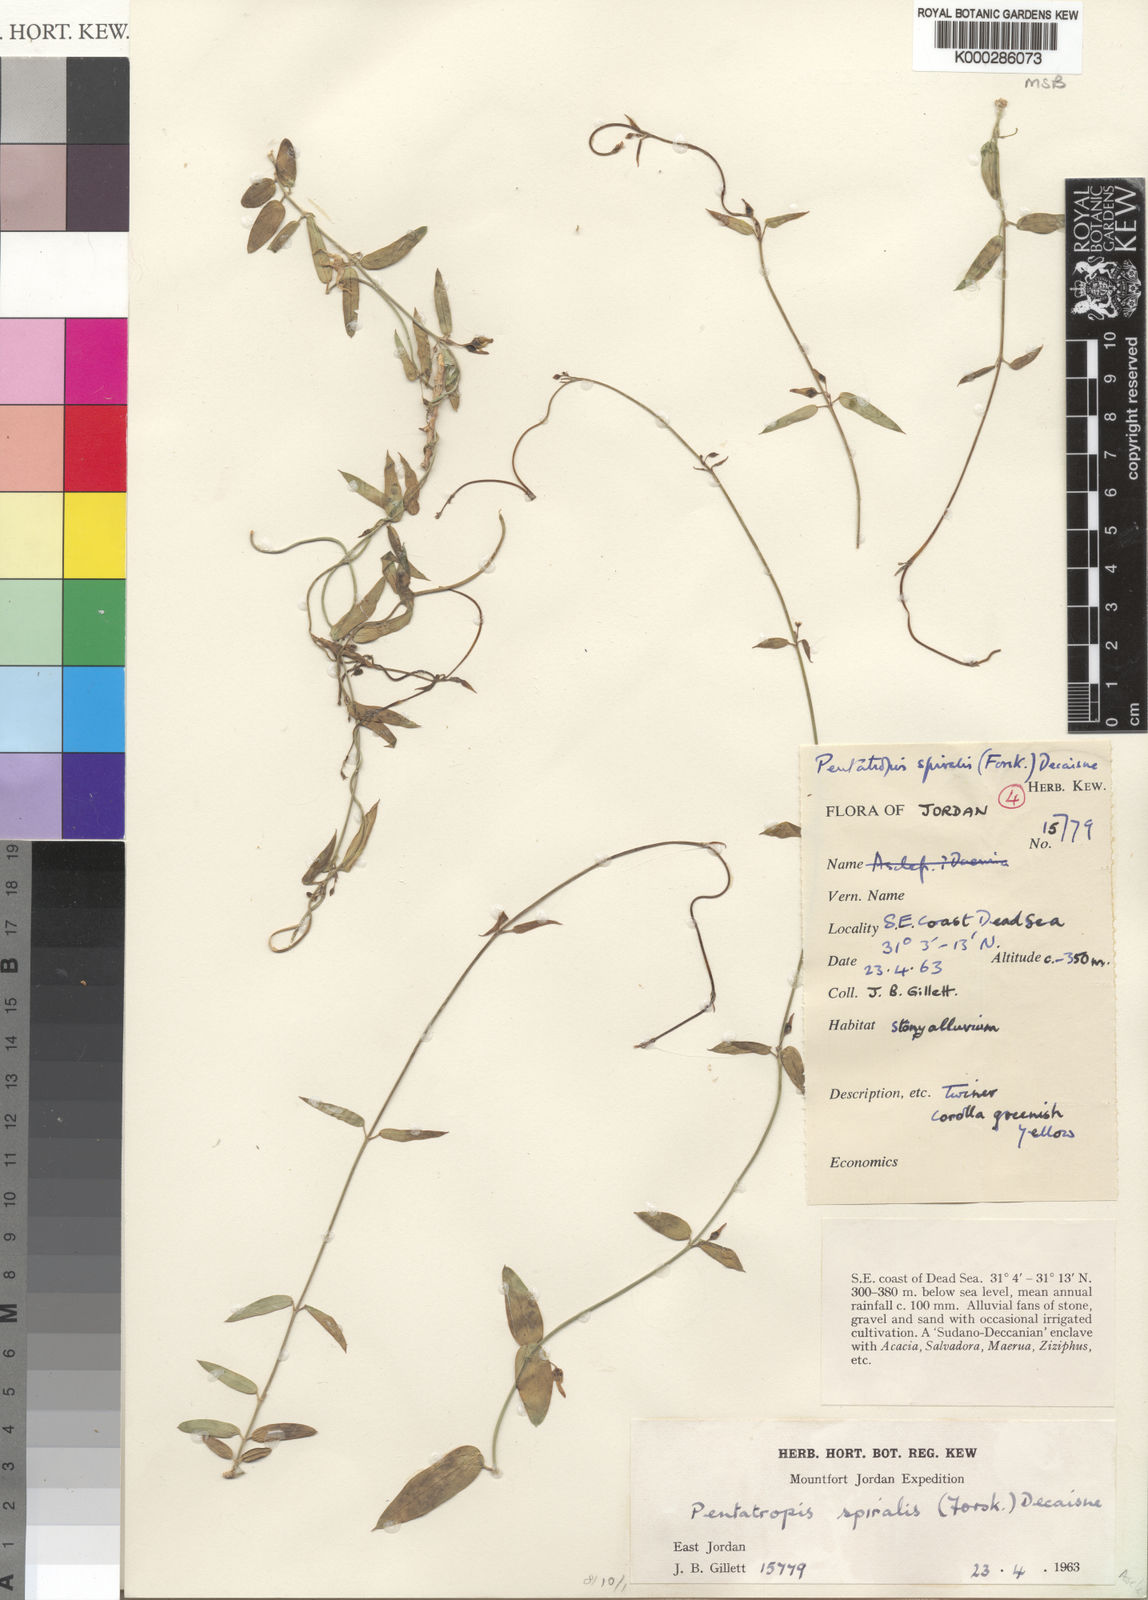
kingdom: Plantae
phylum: Tracheophyta
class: Magnoliopsida
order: Gentianales
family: Apocynaceae
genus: Pentatropis
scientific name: Pentatropis nivalis
